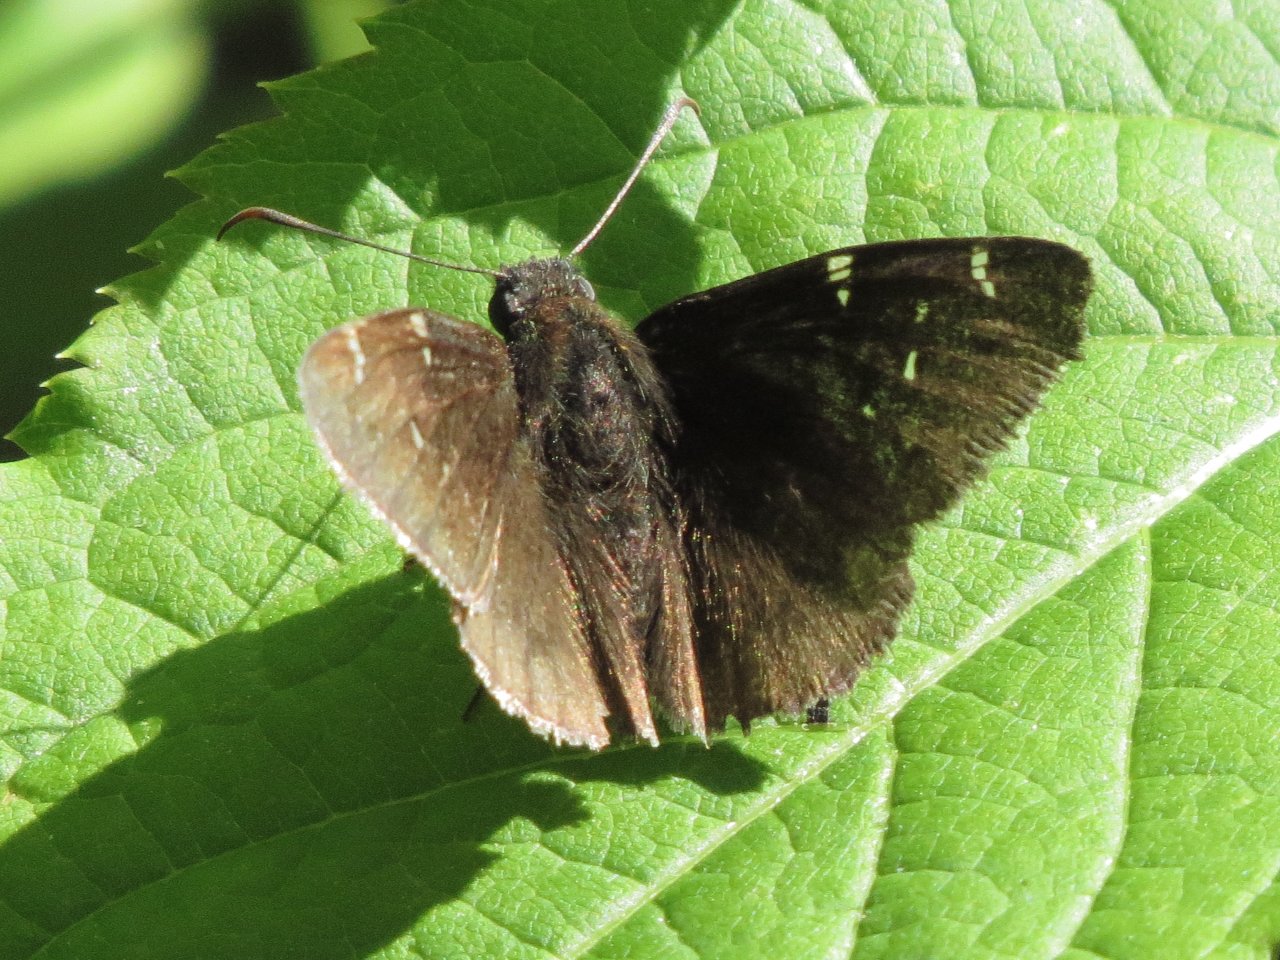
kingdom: Animalia
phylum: Arthropoda
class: Insecta
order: Lepidoptera
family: Hesperiidae
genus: Autochton
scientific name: Autochton
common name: Northern Cloudywing
